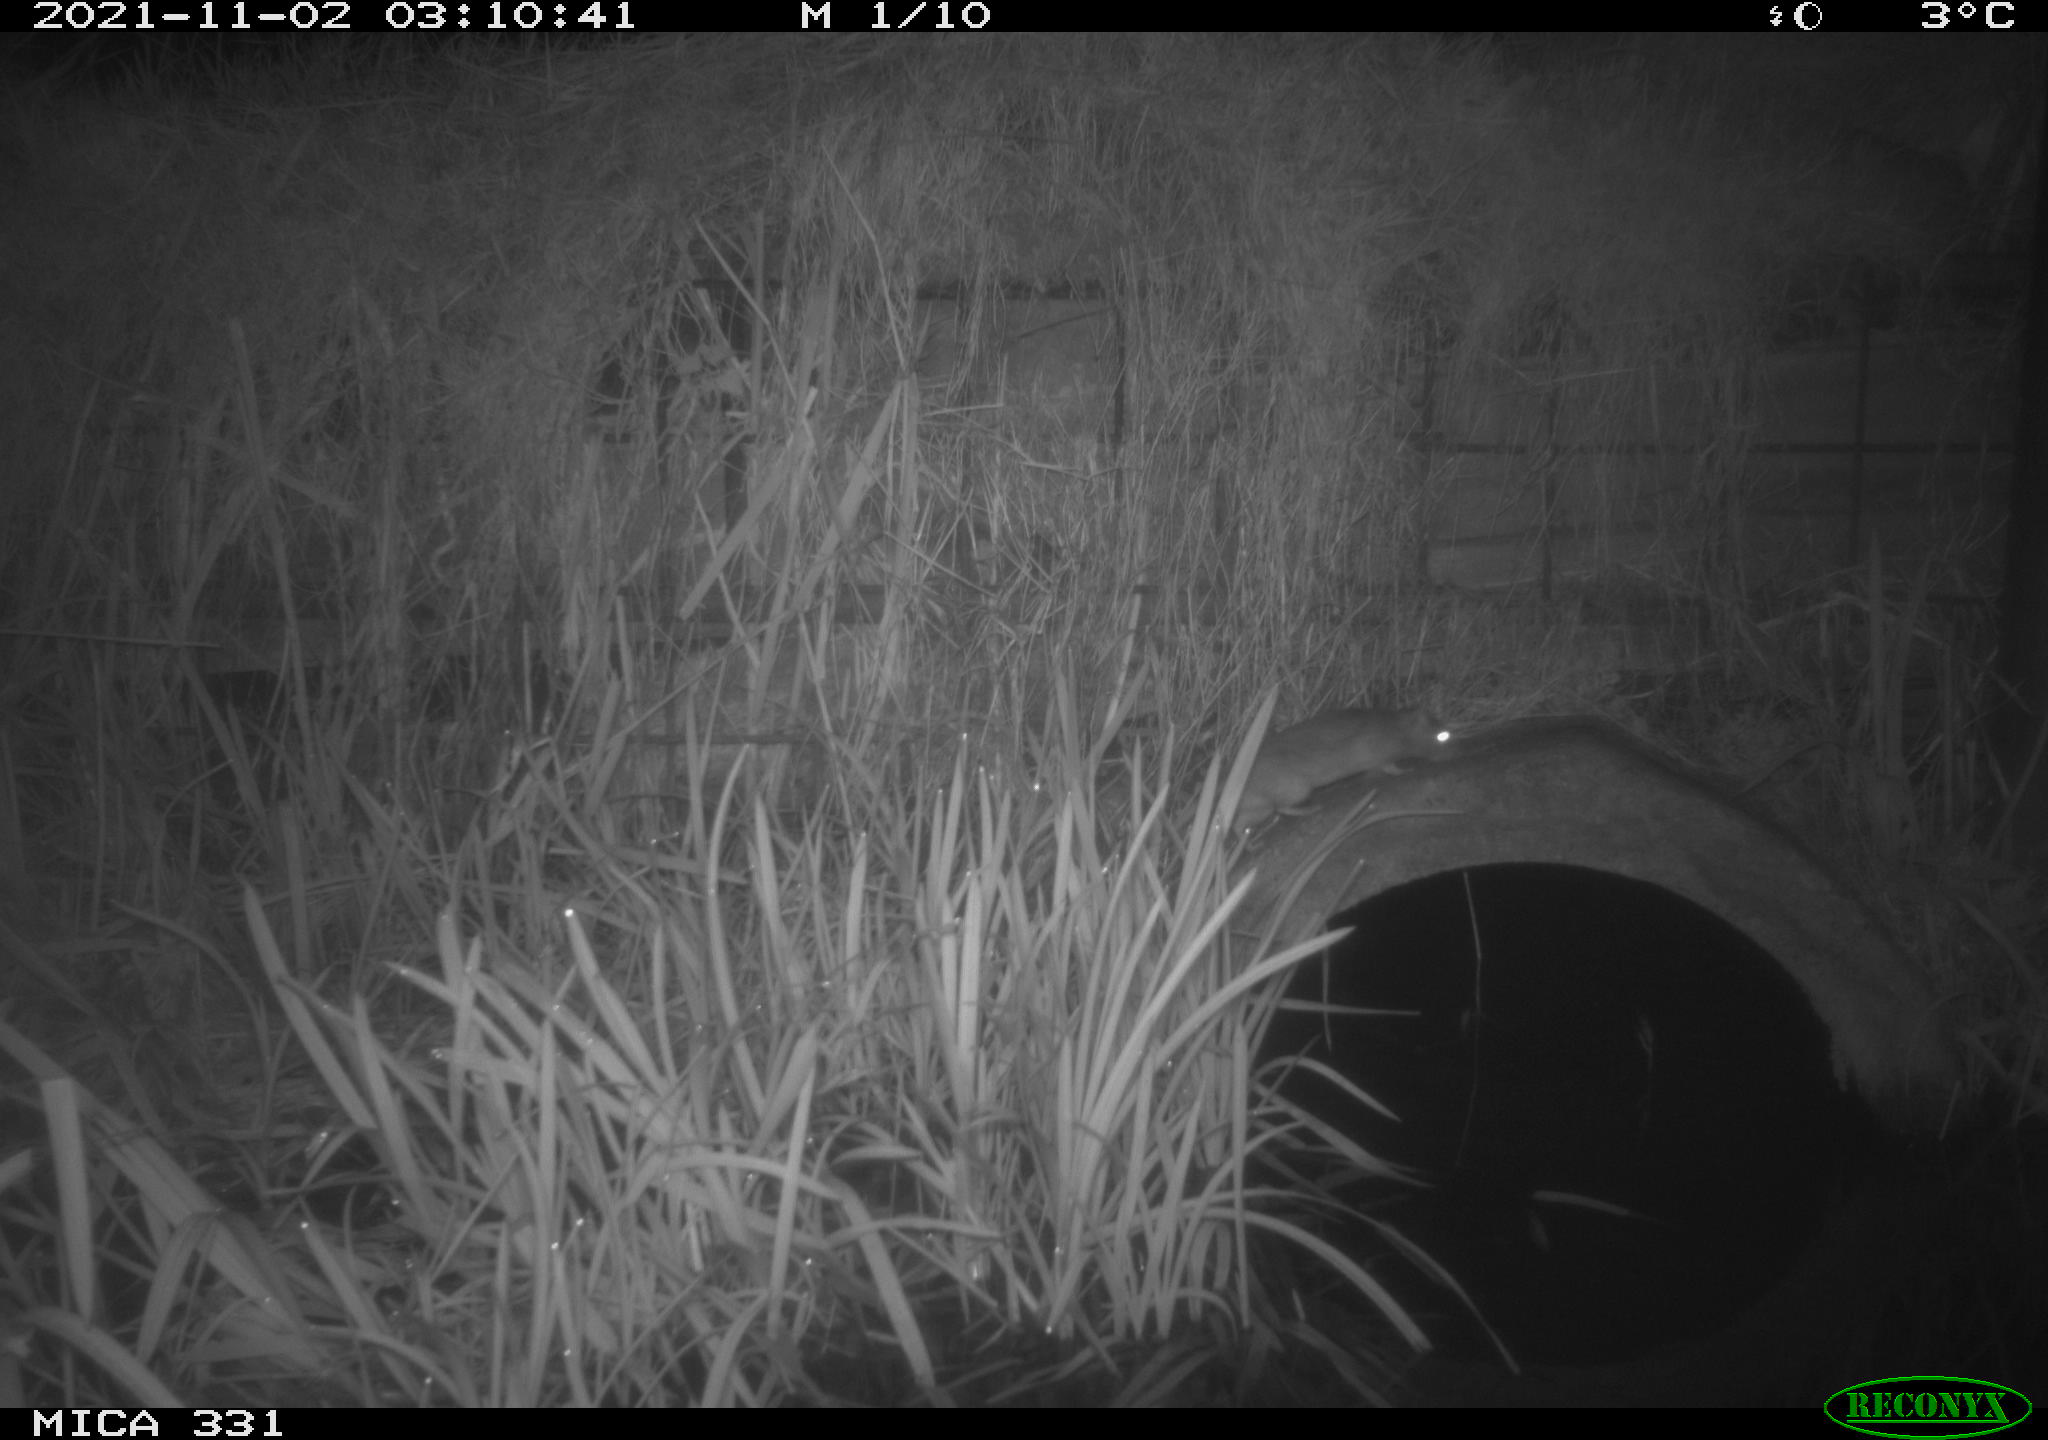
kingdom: Animalia
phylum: Chordata
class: Mammalia
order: Rodentia
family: Muridae
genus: Rattus
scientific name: Rattus norvegicus
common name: Brown rat
